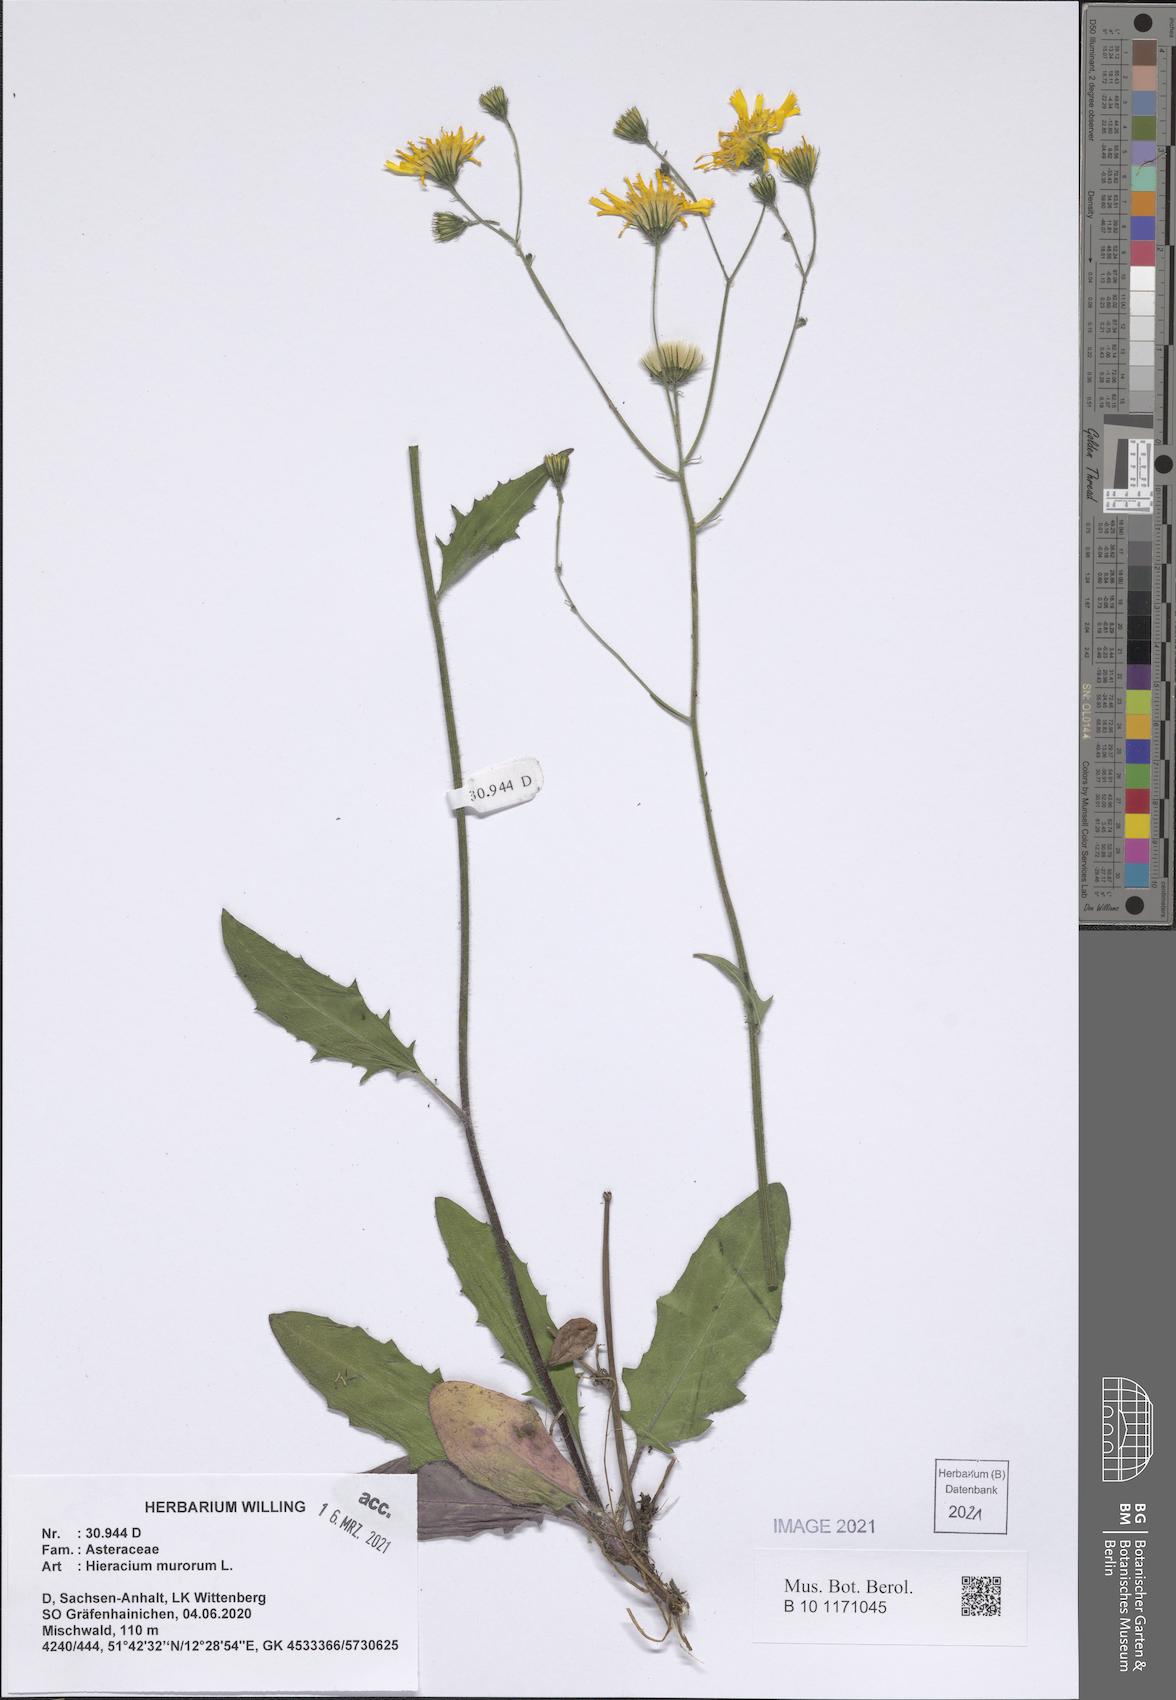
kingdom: Plantae
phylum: Tracheophyta
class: Magnoliopsida
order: Asterales
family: Asteraceae
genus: Hieracium
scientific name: Hieracium murorum
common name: Wall hawkweed
